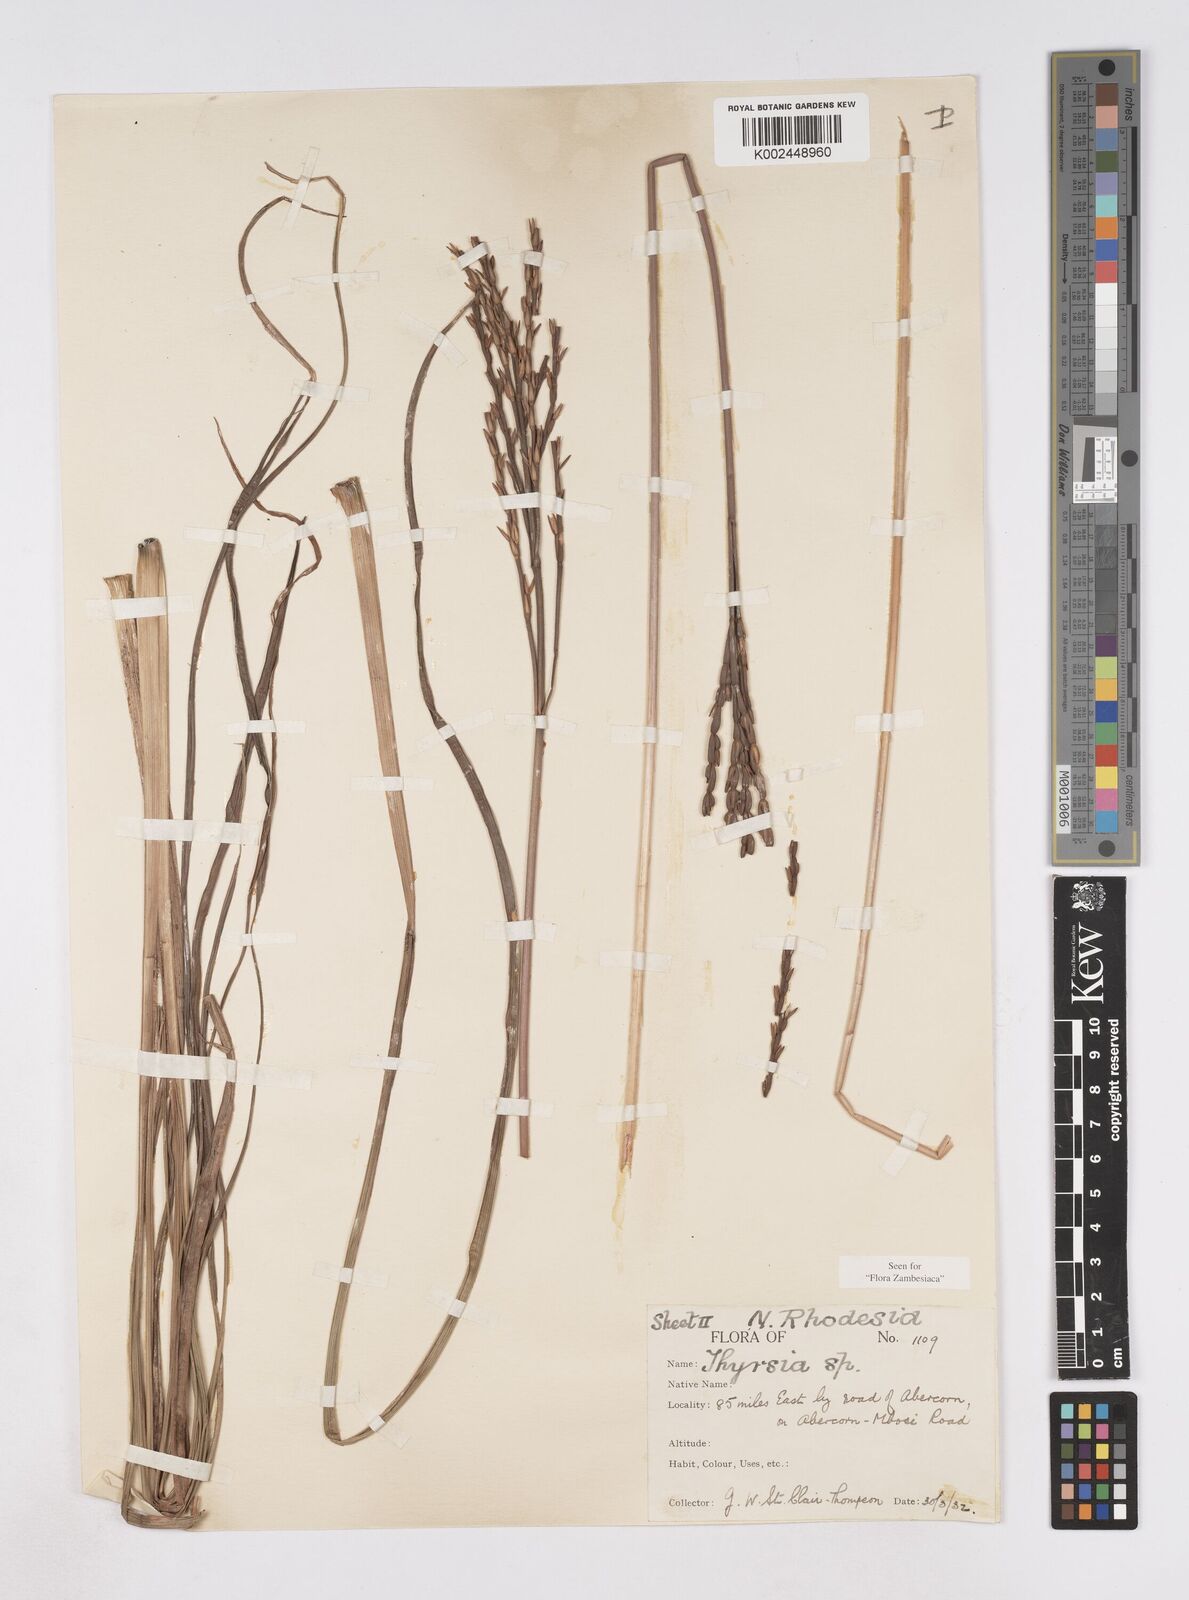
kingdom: Plantae
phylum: Tracheophyta
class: Liliopsida
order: Poales
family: Poaceae
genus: Thyrsia
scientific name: Thyrsia huillensis
